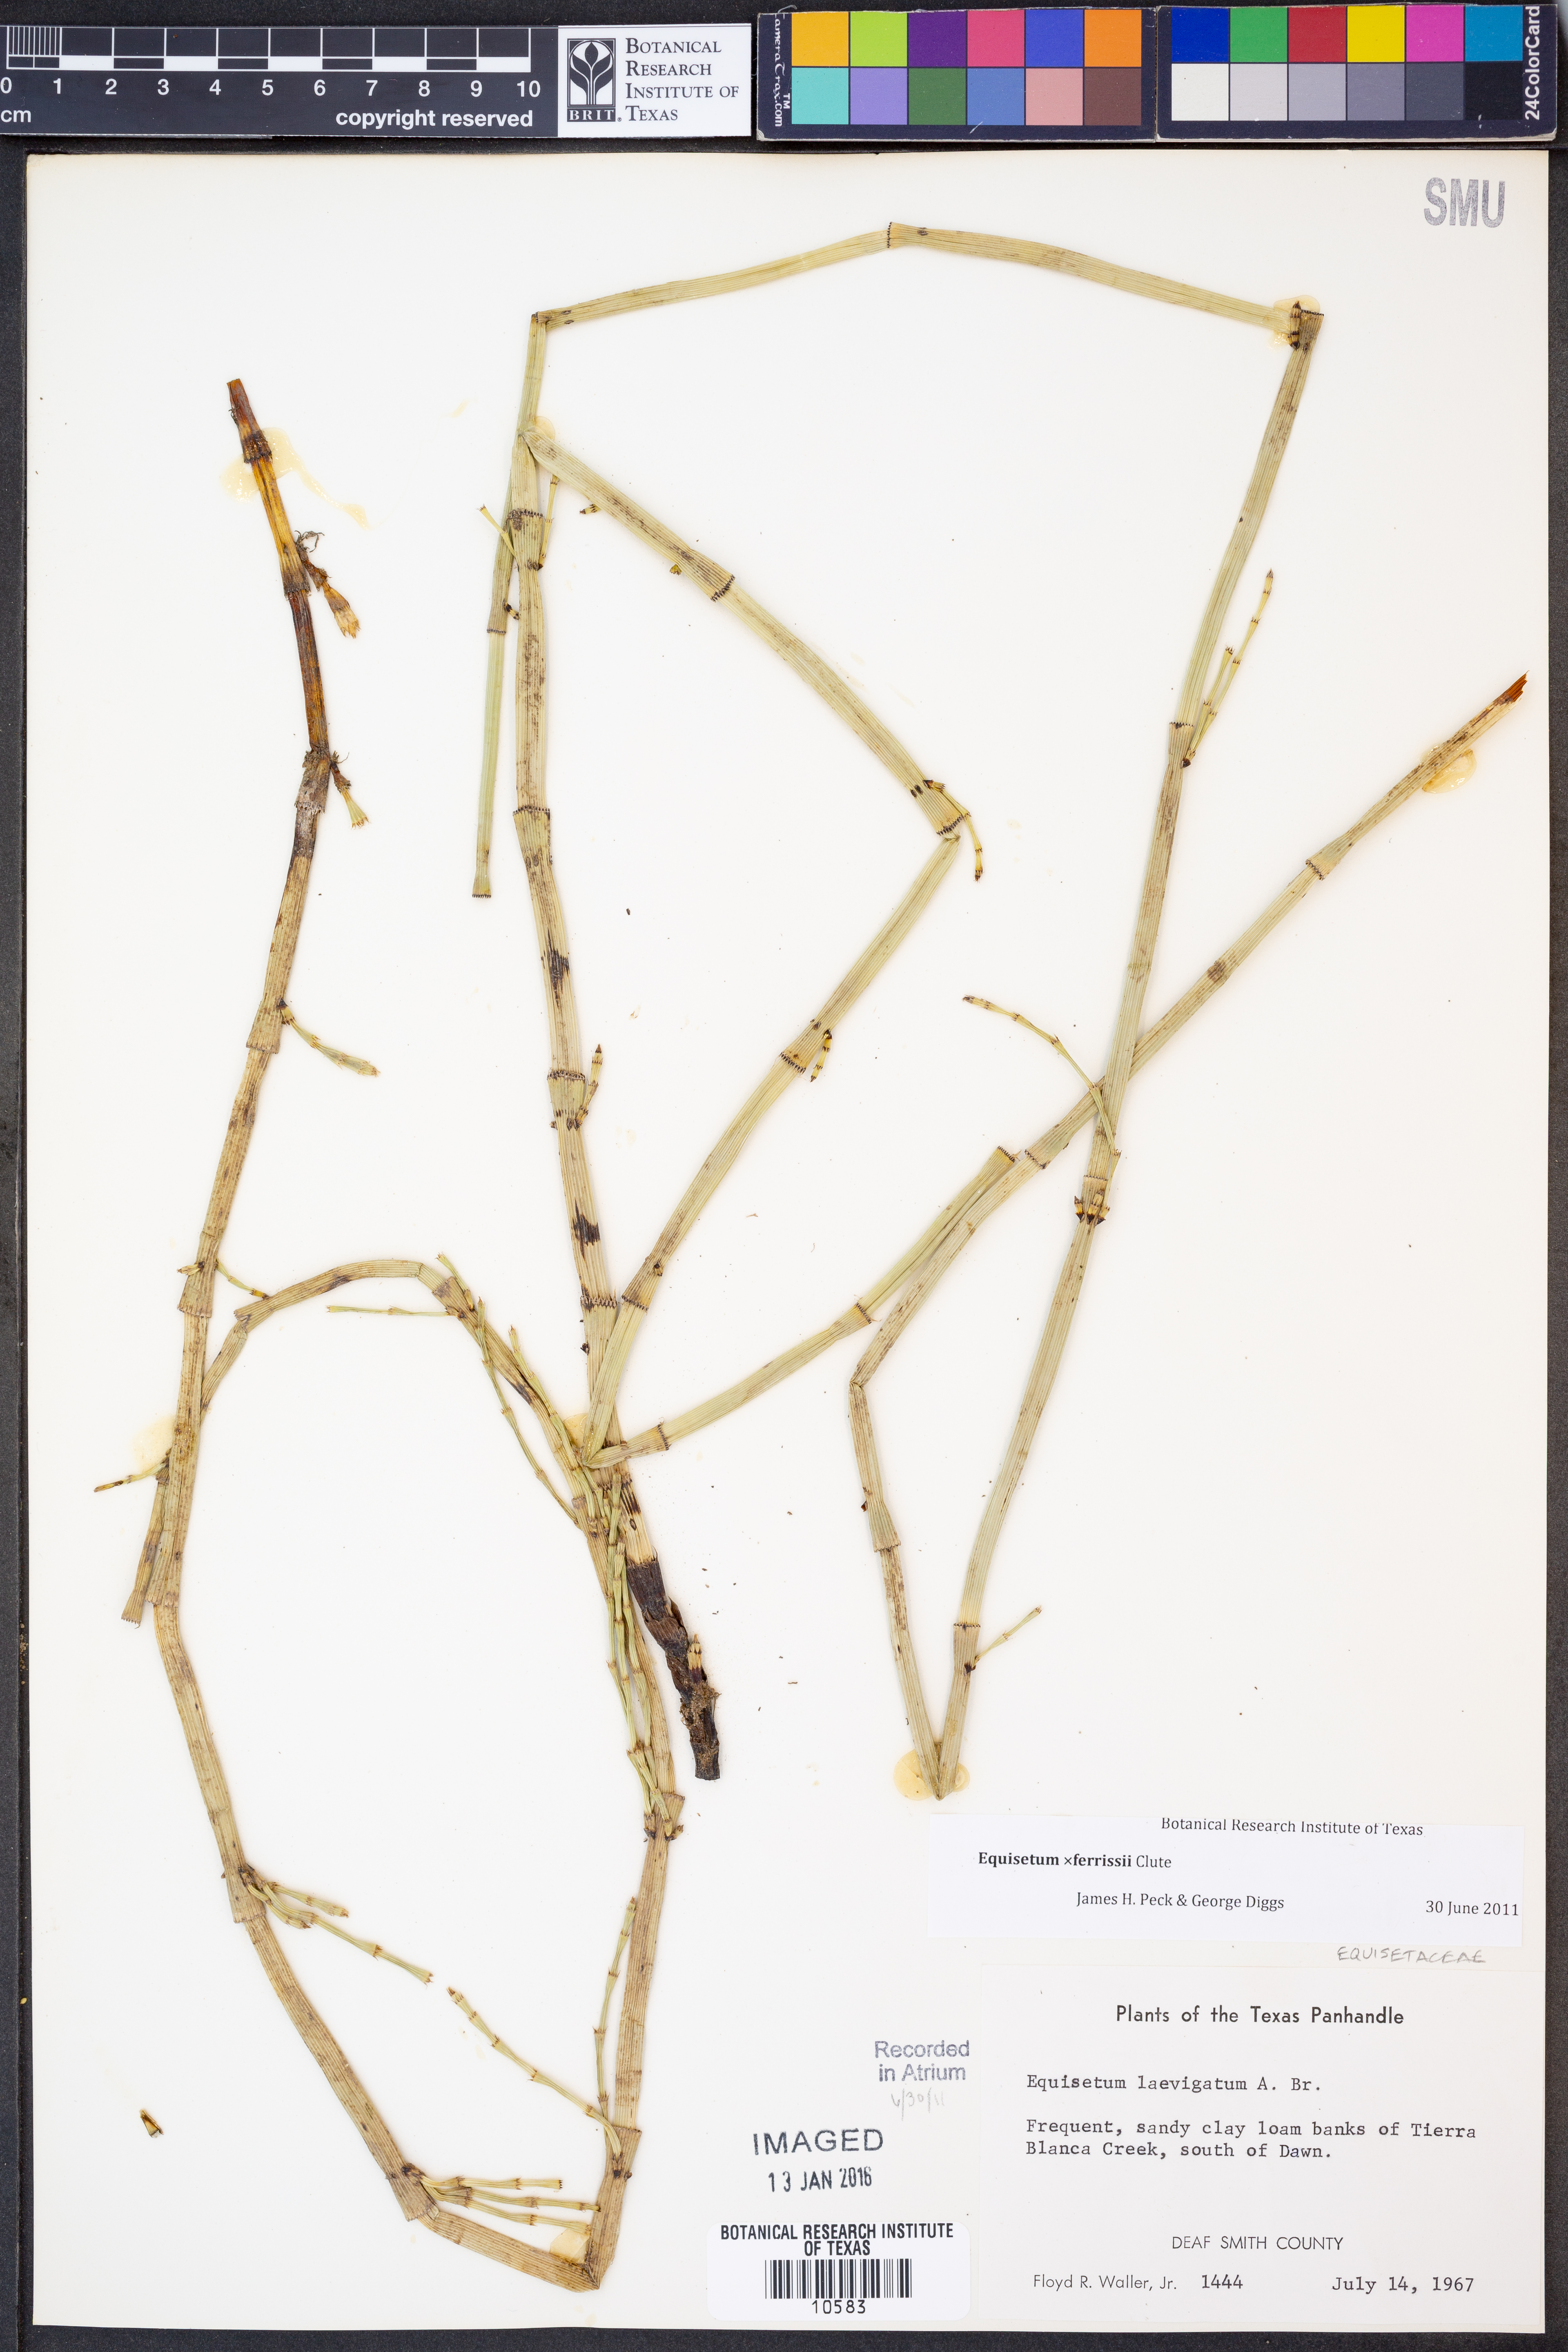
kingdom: Plantae
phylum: Tracheophyta
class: Polypodiopsida
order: Equisetales
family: Equisetaceae
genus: Equisetum
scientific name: Equisetum ferrissii
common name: Ferriss' horsetail
